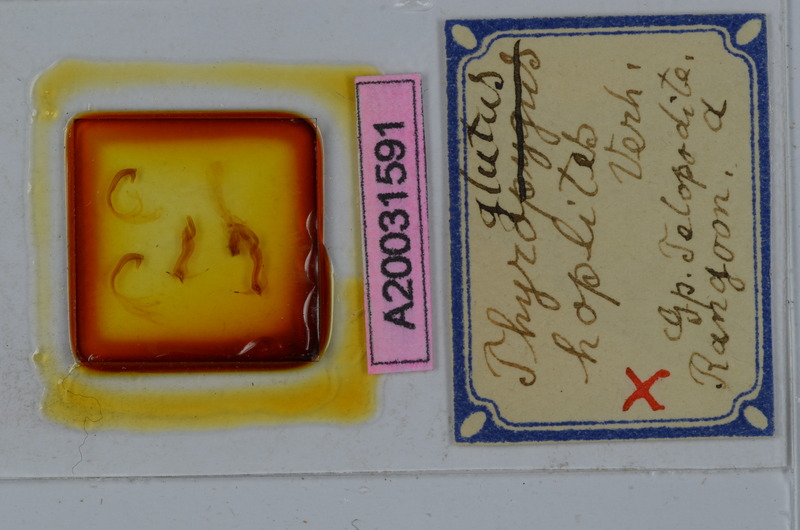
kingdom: Animalia
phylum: Arthropoda
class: Diplopoda
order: Spirostreptida
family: Harpagophoridae
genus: Gonoplectus
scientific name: Gonoplectus hoplites
